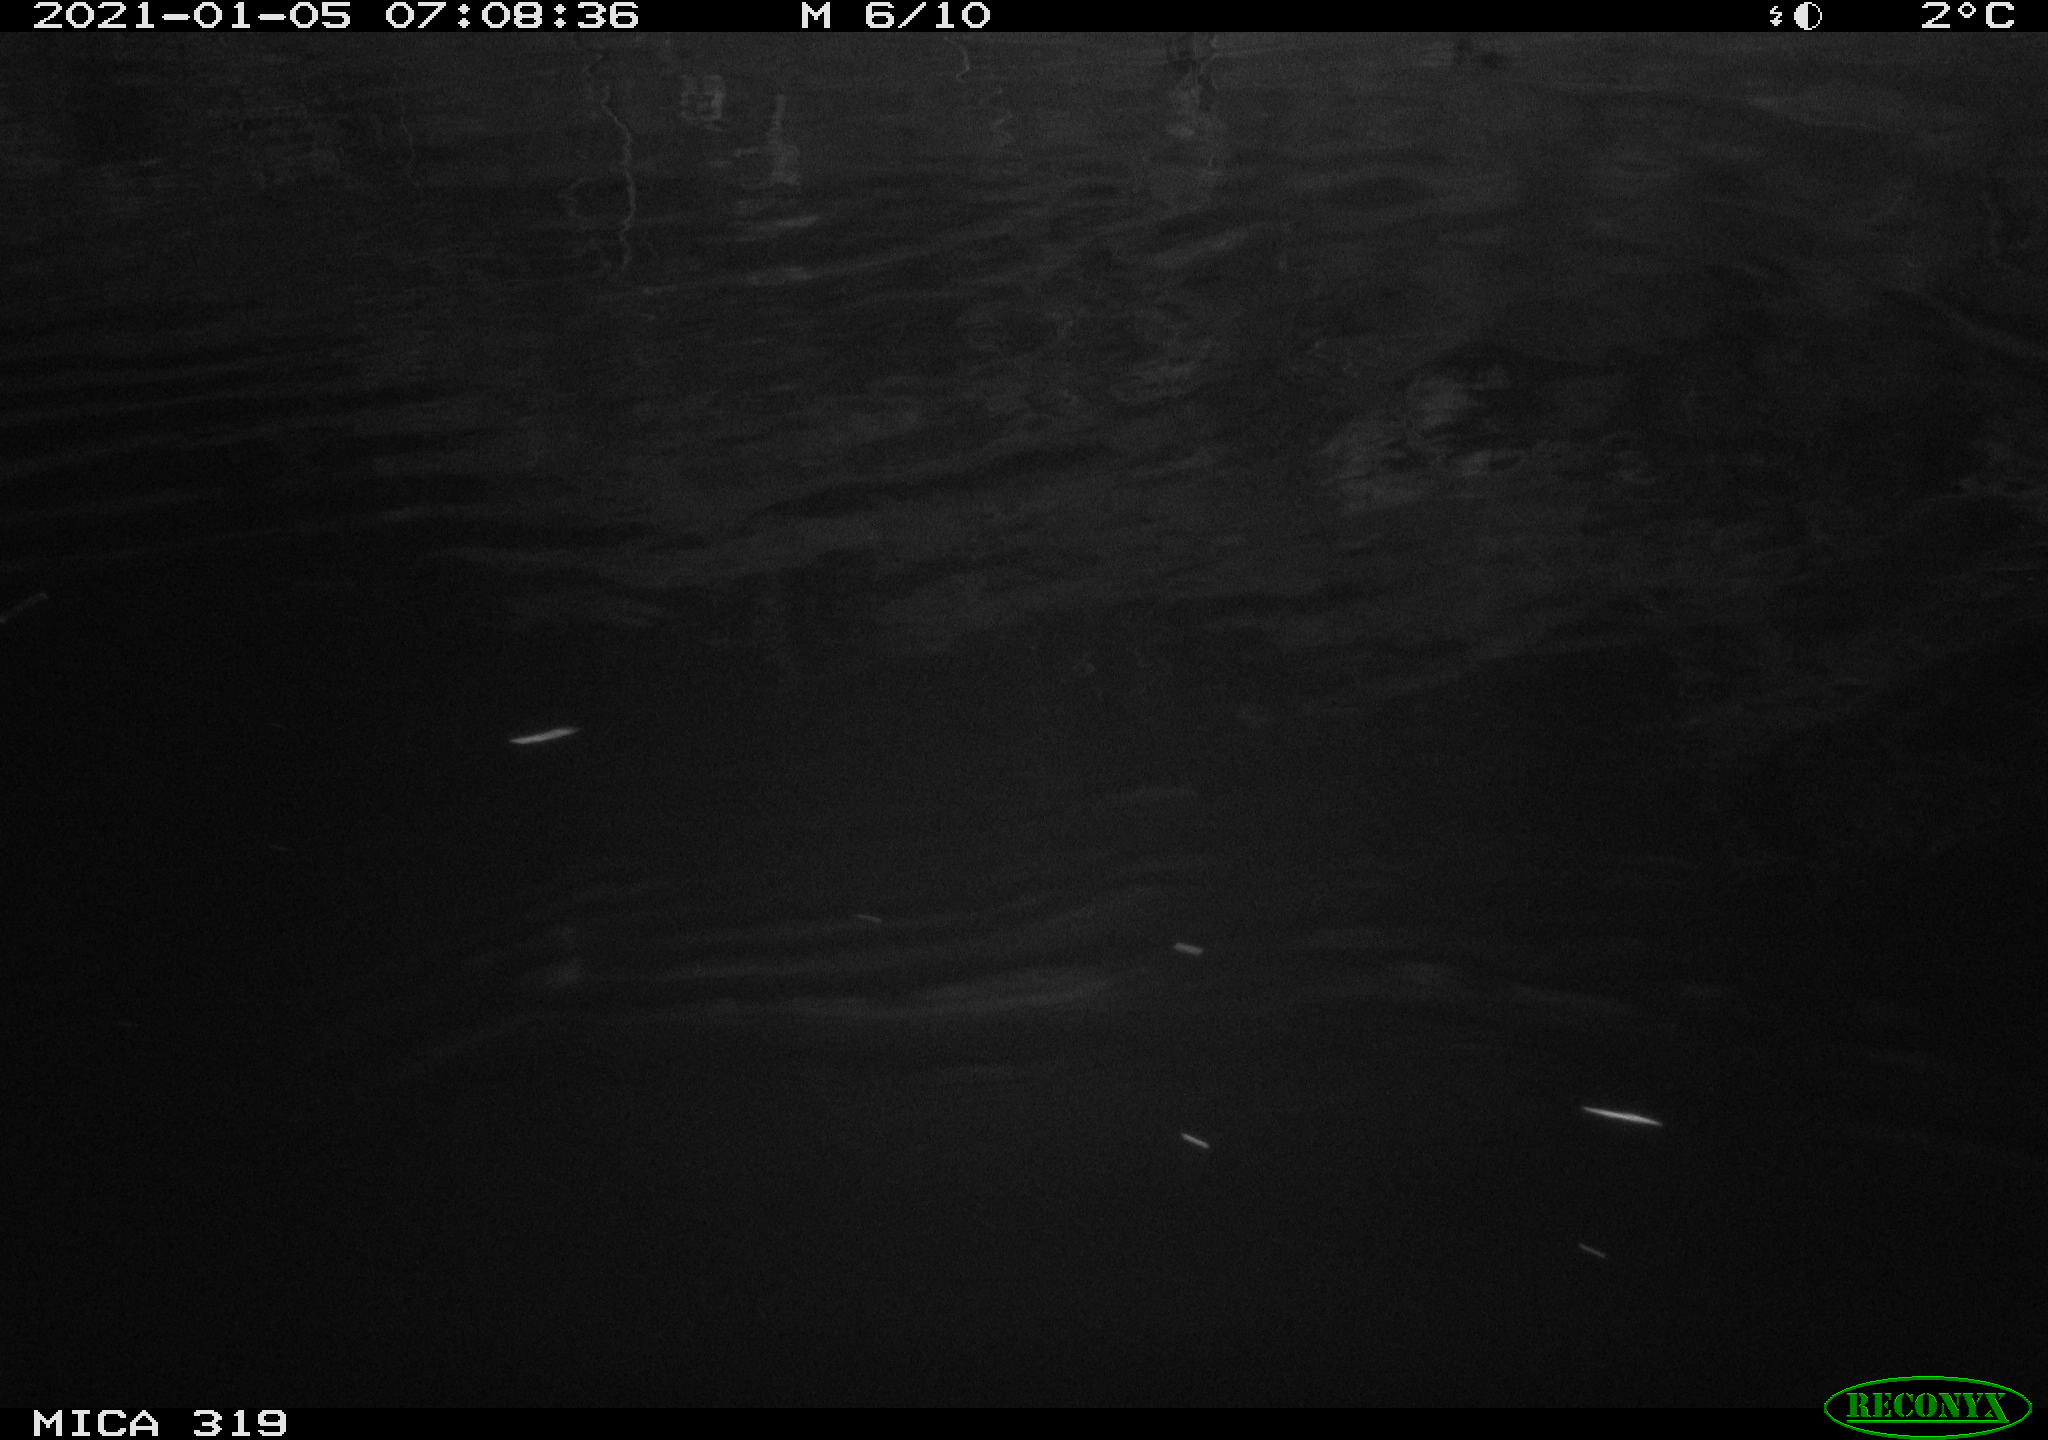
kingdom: Animalia
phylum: Chordata
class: Aves
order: Anseriformes
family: Anatidae
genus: Anas
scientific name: Anas platyrhynchos
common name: Mallard
